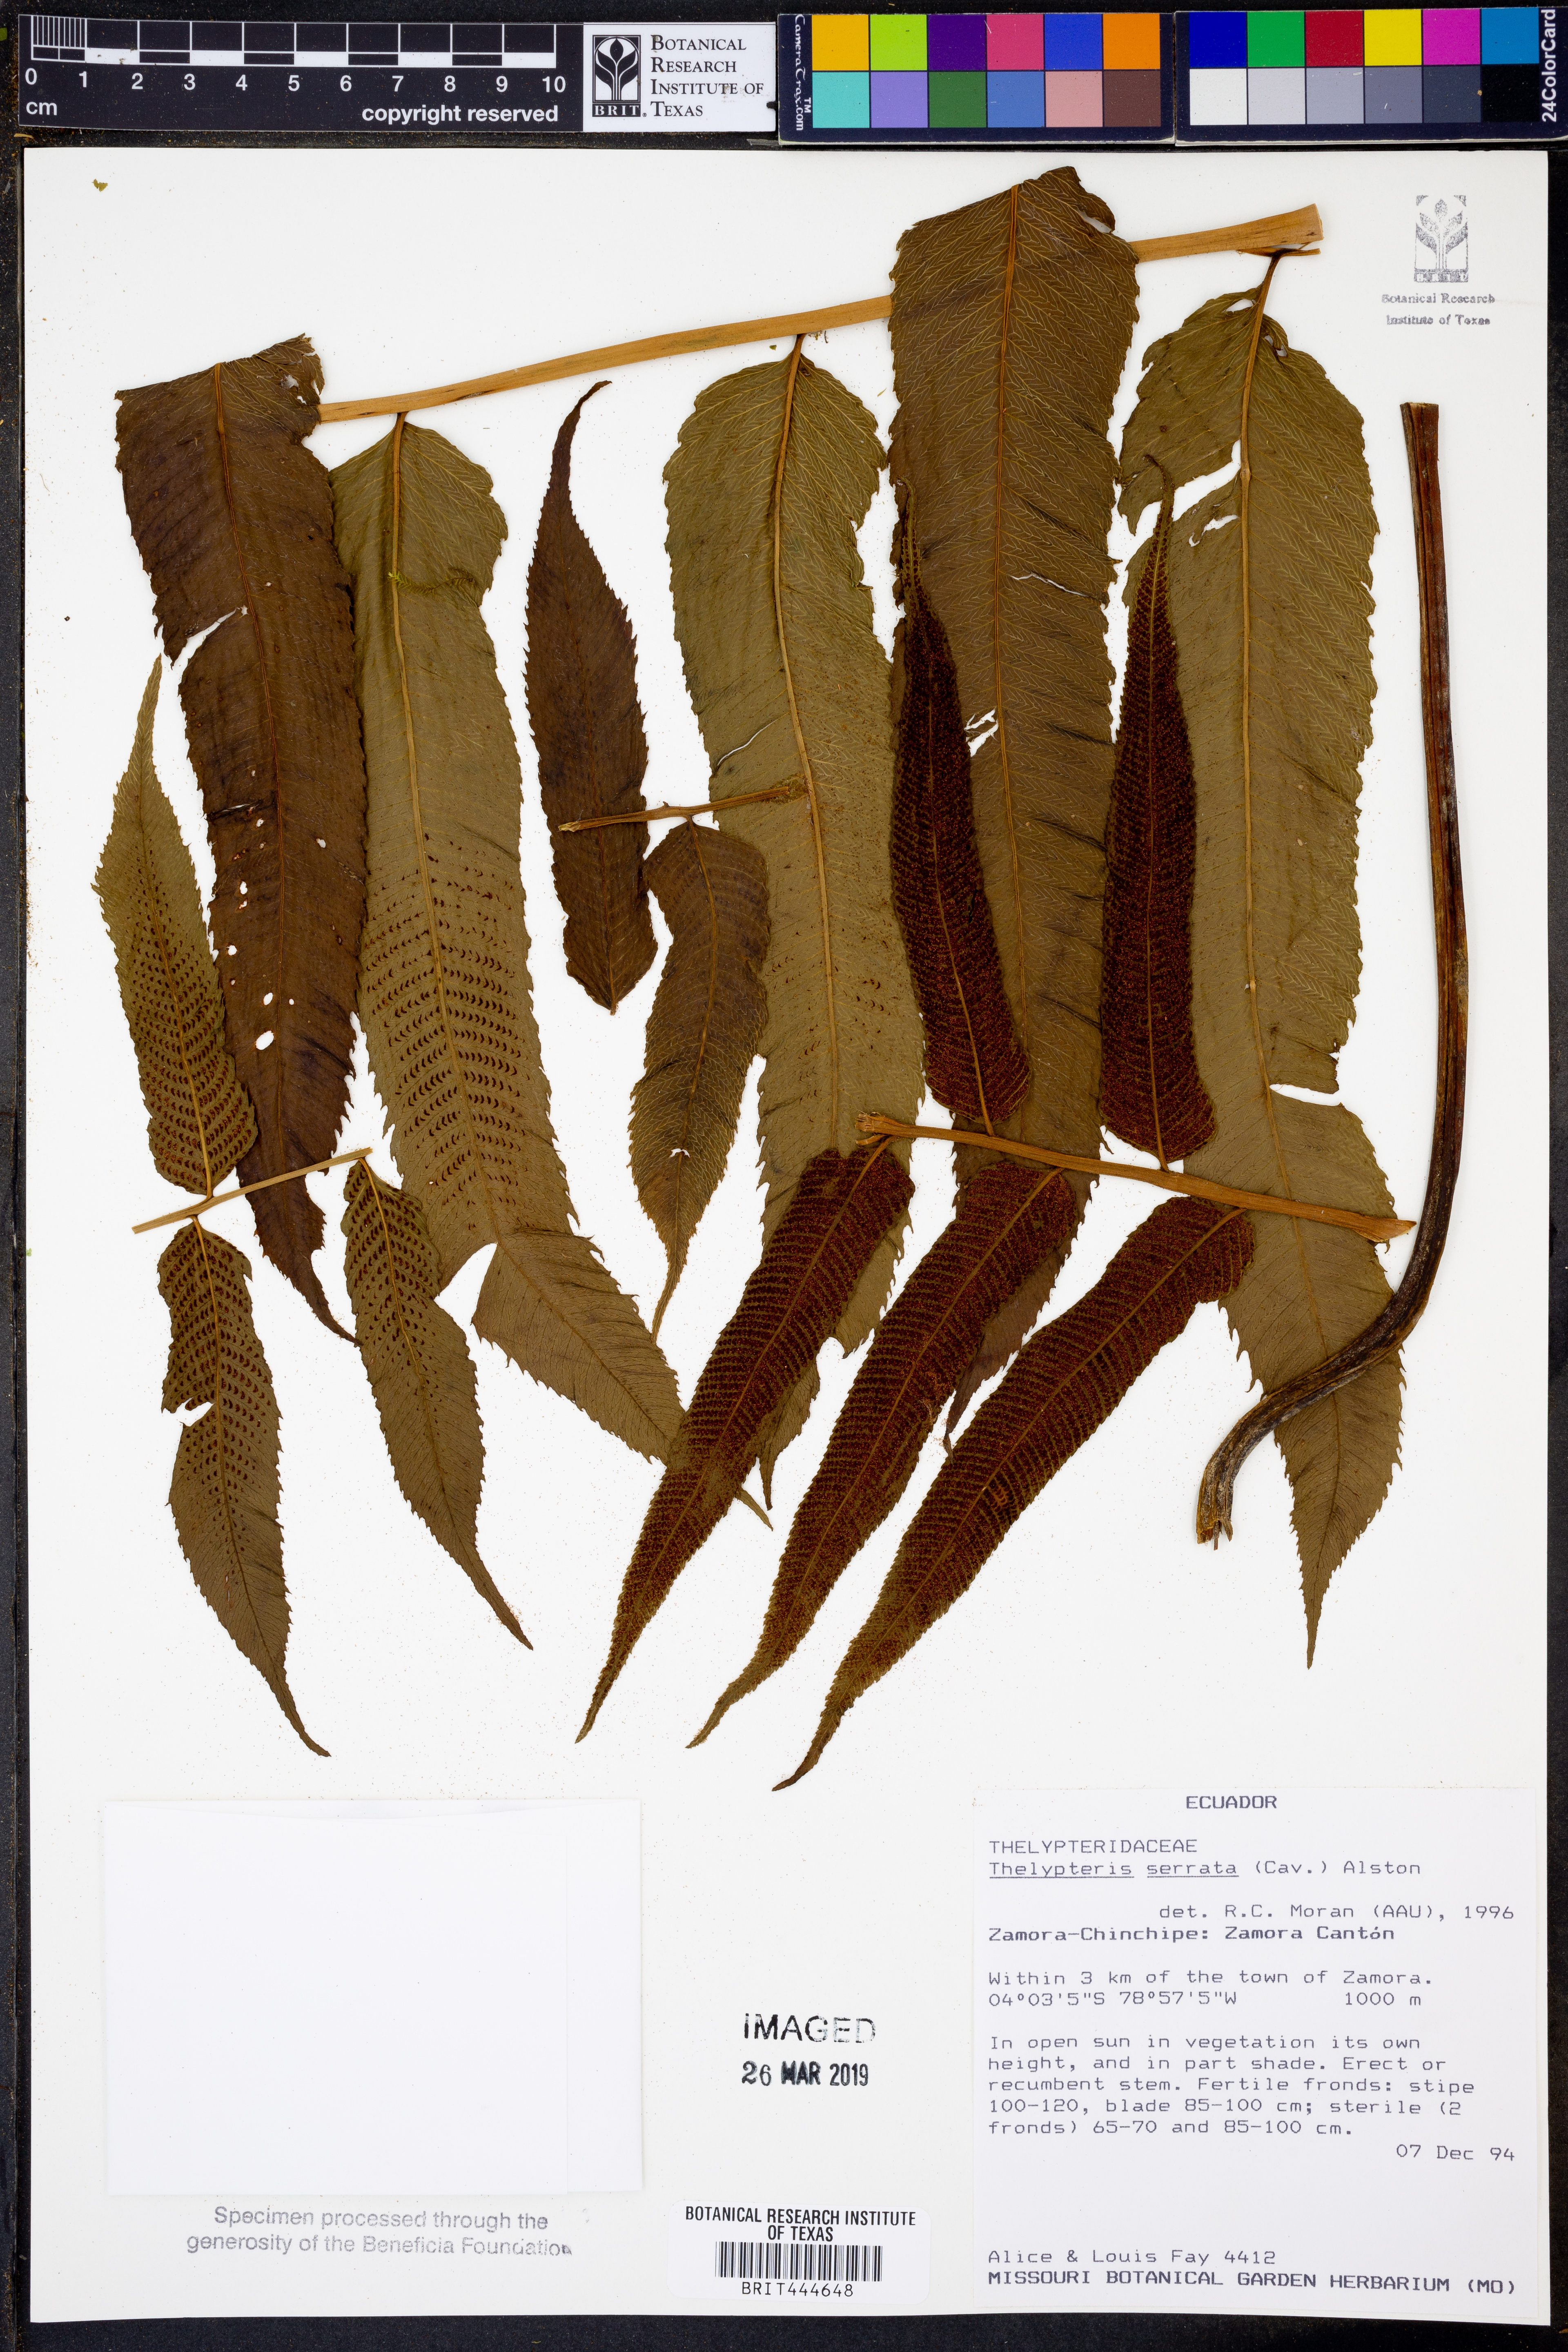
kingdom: Plantae
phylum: Tracheophyta
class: Polypodiopsida
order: Polypodiales
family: Thelypteridaceae
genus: Meniscium
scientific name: Meniscium serratum
